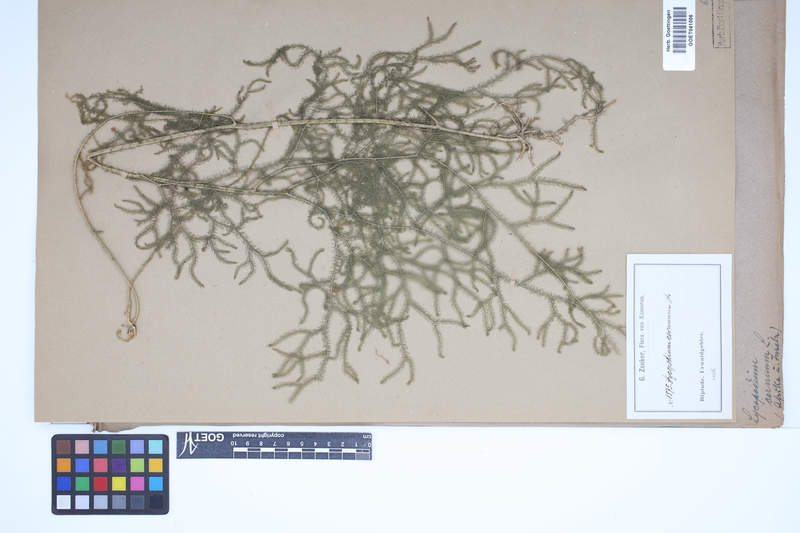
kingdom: Plantae
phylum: Tracheophyta
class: Lycopodiopsida
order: Lycopodiales
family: Lycopodiaceae
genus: Palhinhaea
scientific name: Palhinhaea cernua
